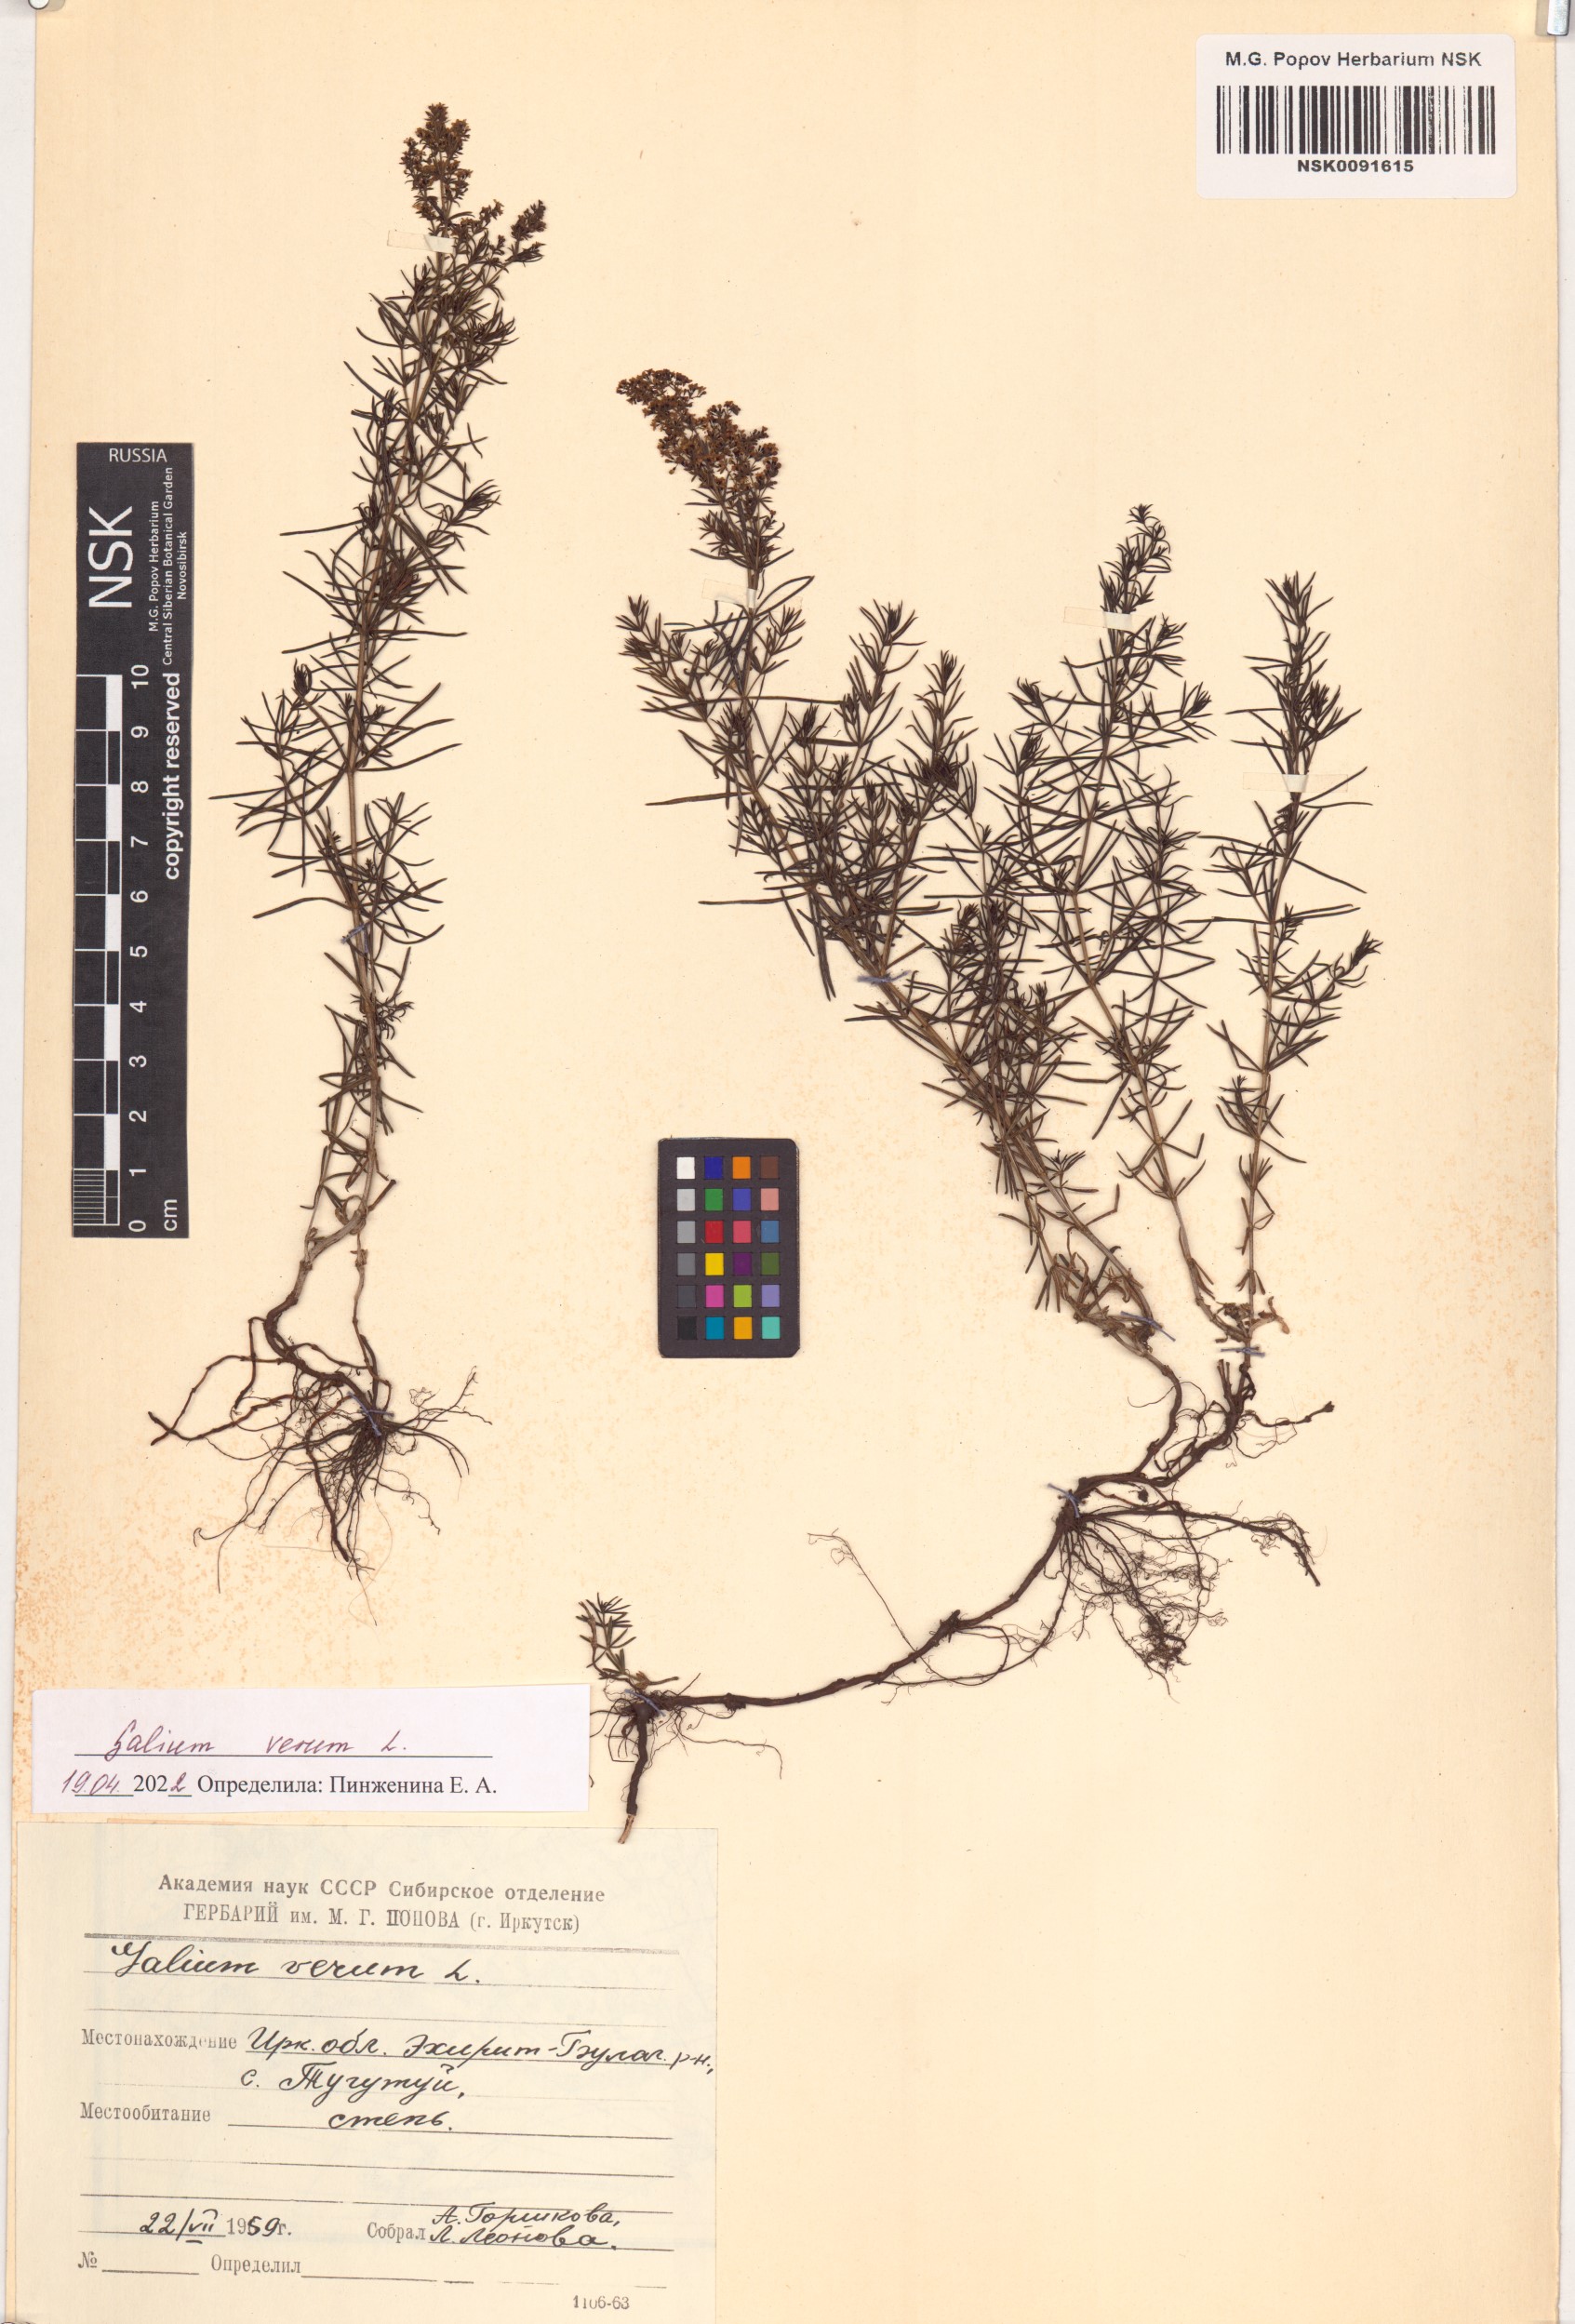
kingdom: Plantae
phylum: Tracheophyta
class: Magnoliopsida
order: Gentianales
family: Rubiaceae
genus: Galium
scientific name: Galium verum
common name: Lady's bedstraw
